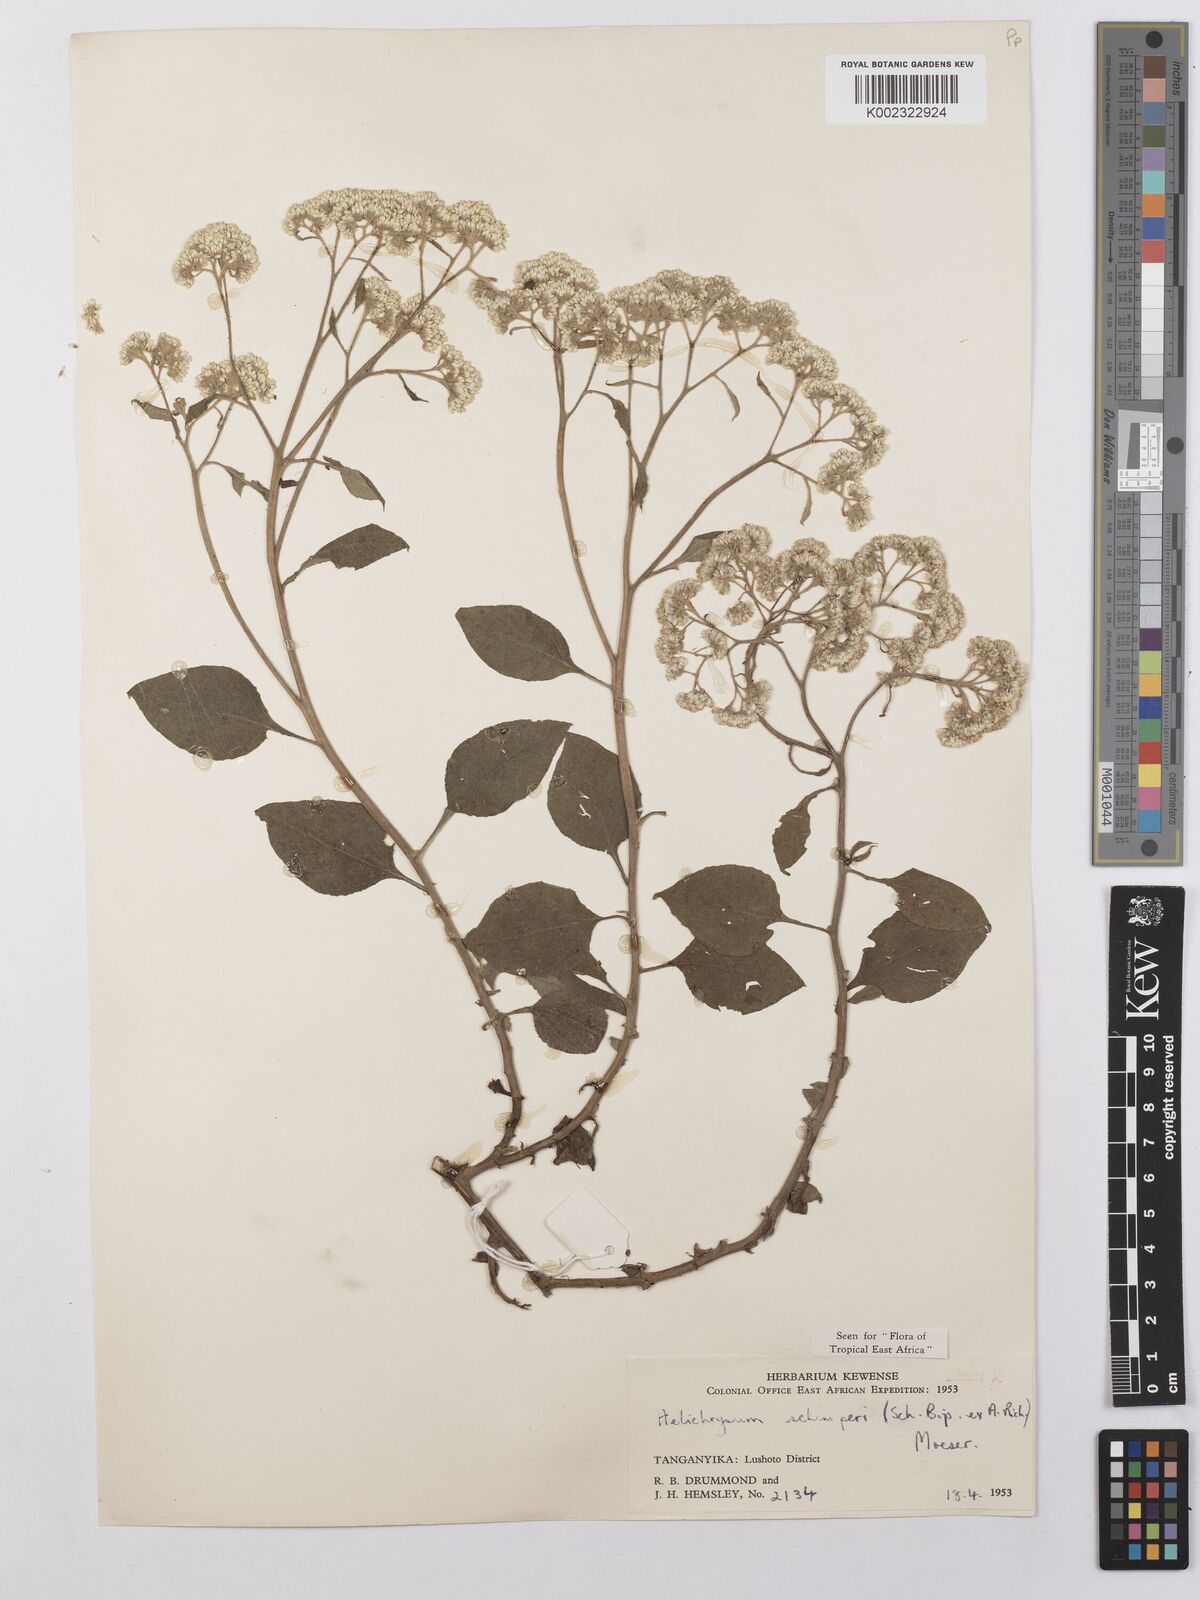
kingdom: Plantae
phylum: Tracheophyta
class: Magnoliopsida
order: Asterales
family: Asteraceae
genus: Helichrysum
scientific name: Helichrysum schimperi
